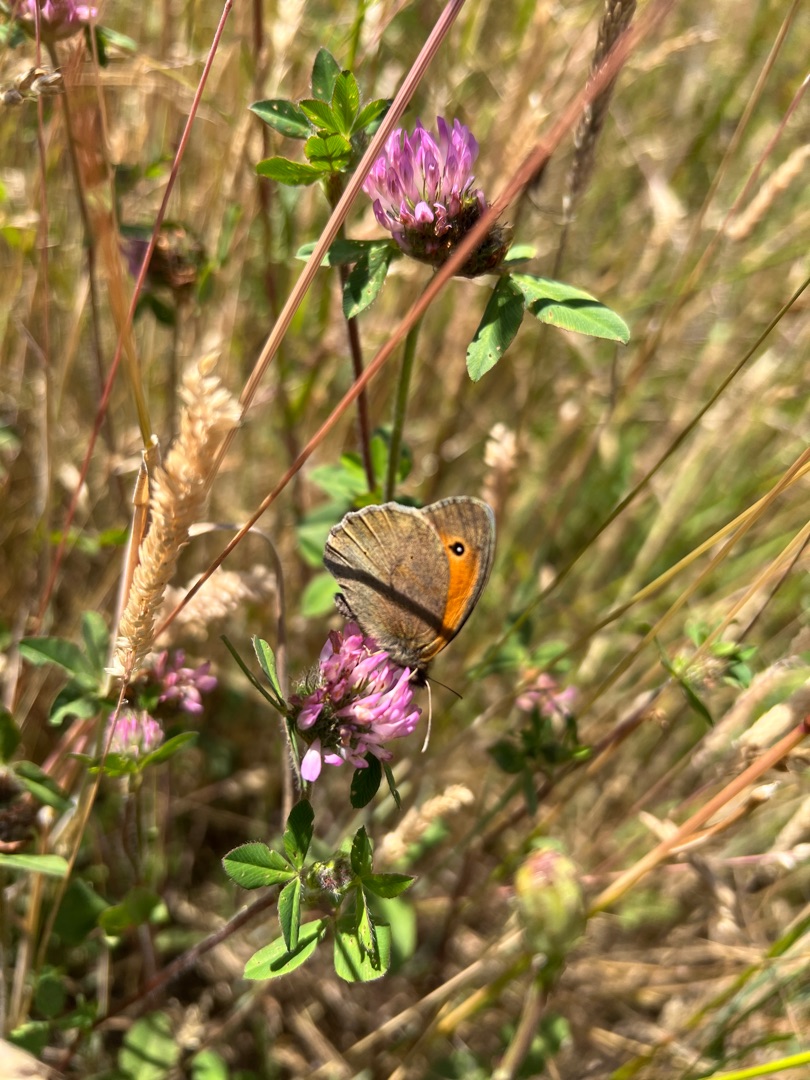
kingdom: Animalia
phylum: Arthropoda
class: Insecta
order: Lepidoptera
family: Nymphalidae
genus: Maniola
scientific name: Maniola jurtina
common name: Græsrandøje
